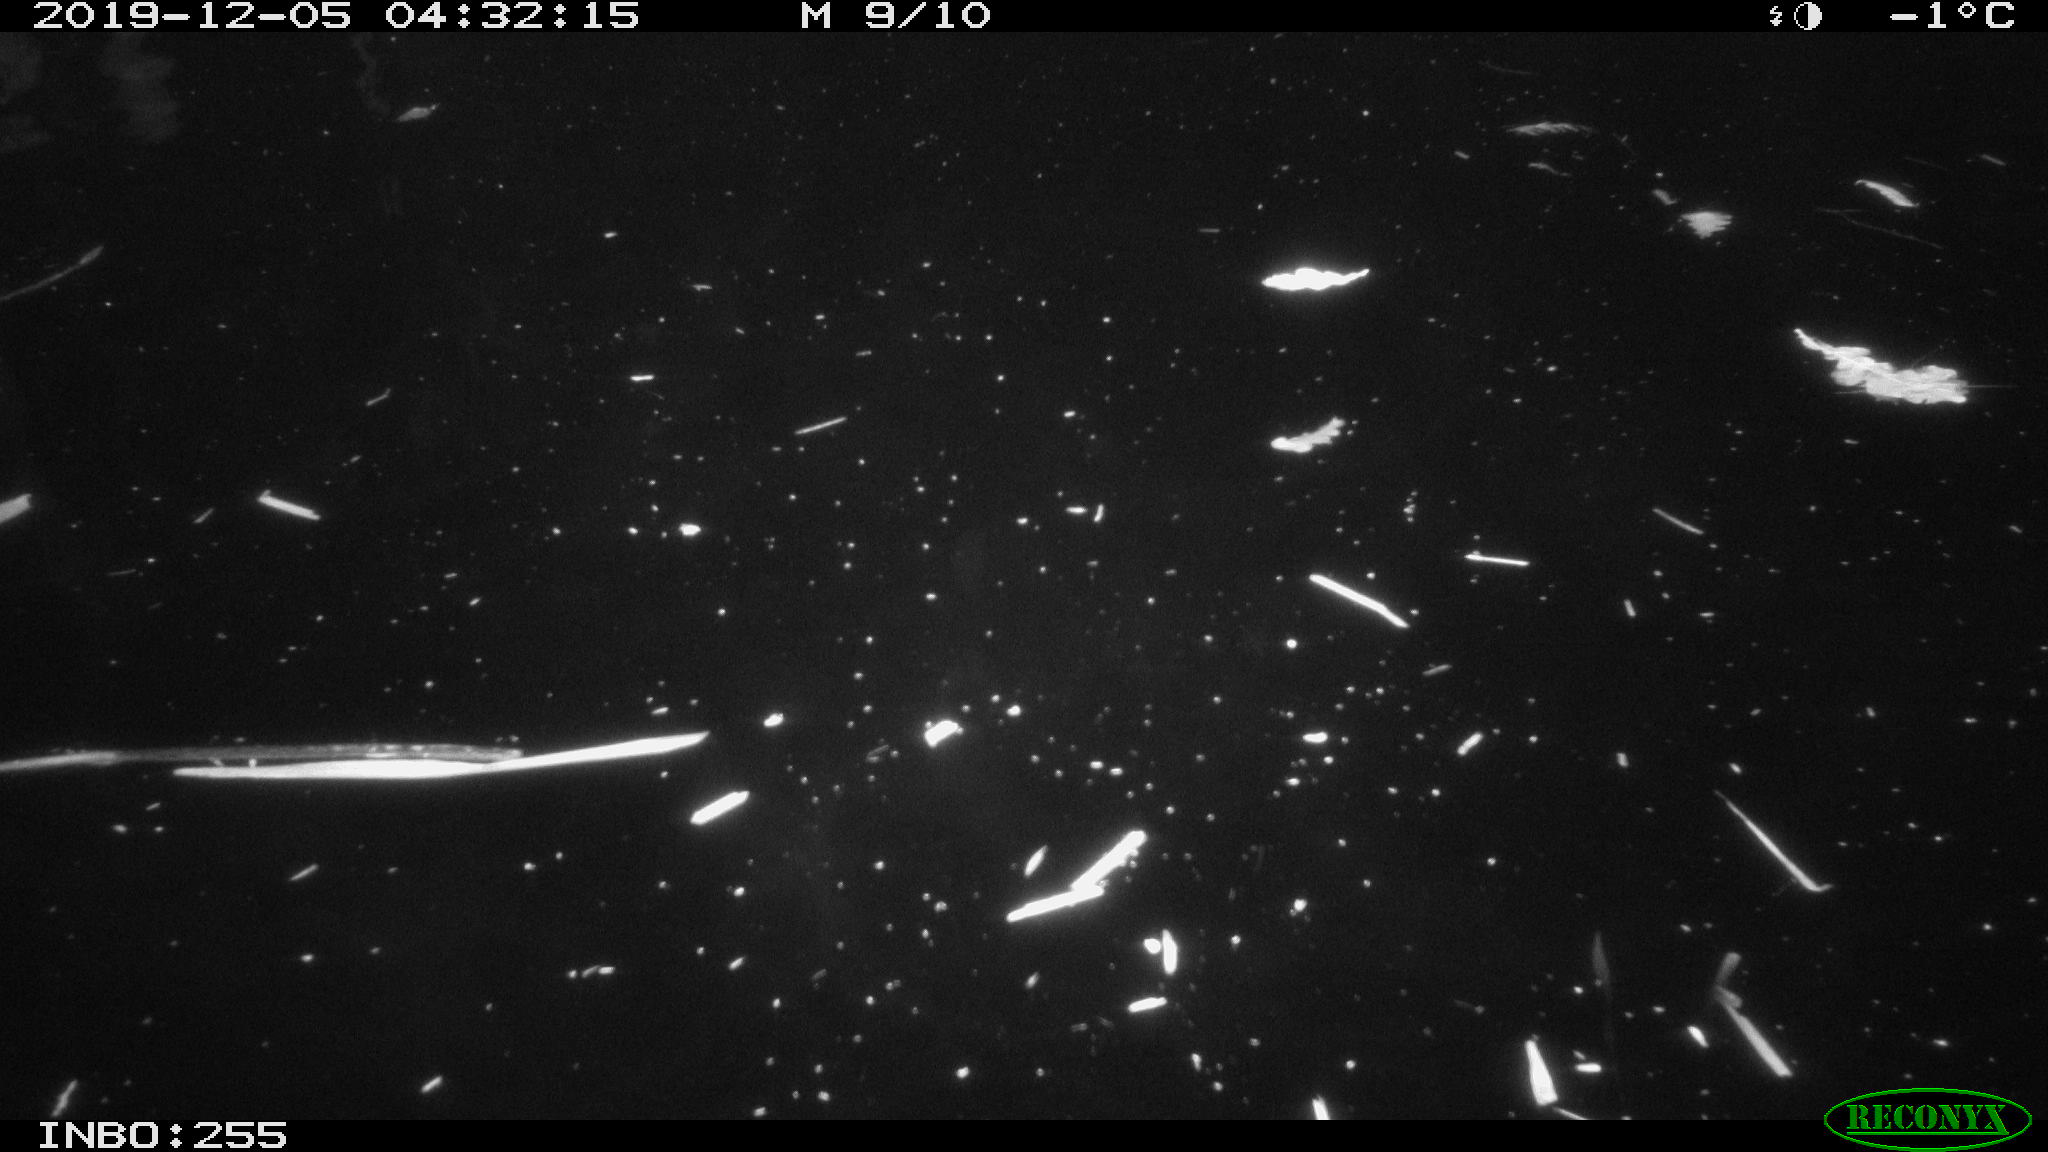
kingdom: Animalia
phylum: Chordata
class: Aves
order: Anseriformes
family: Anatidae
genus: Anas
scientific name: Anas platyrhynchos
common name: Mallard
